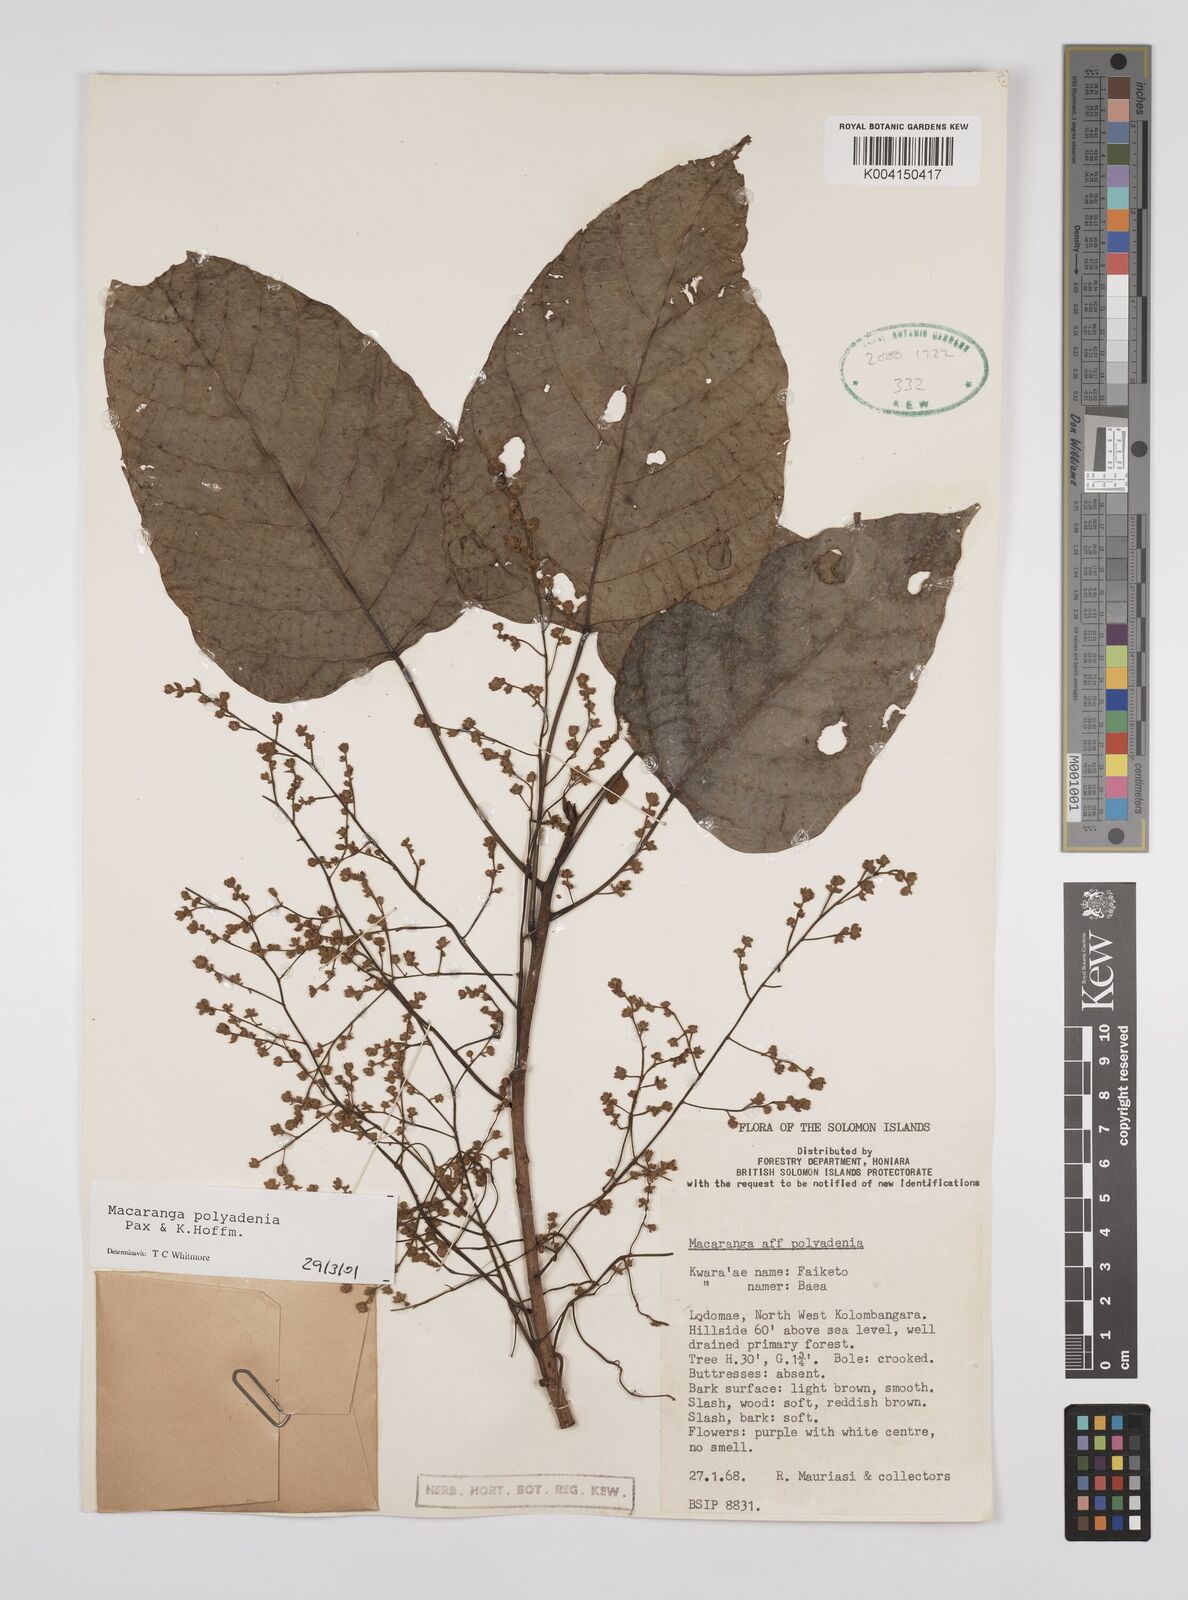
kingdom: Plantae
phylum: Tracheophyta
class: Magnoliopsida
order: Malpighiales
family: Euphorbiaceae
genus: Macaranga
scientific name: Macaranga polyadenia
